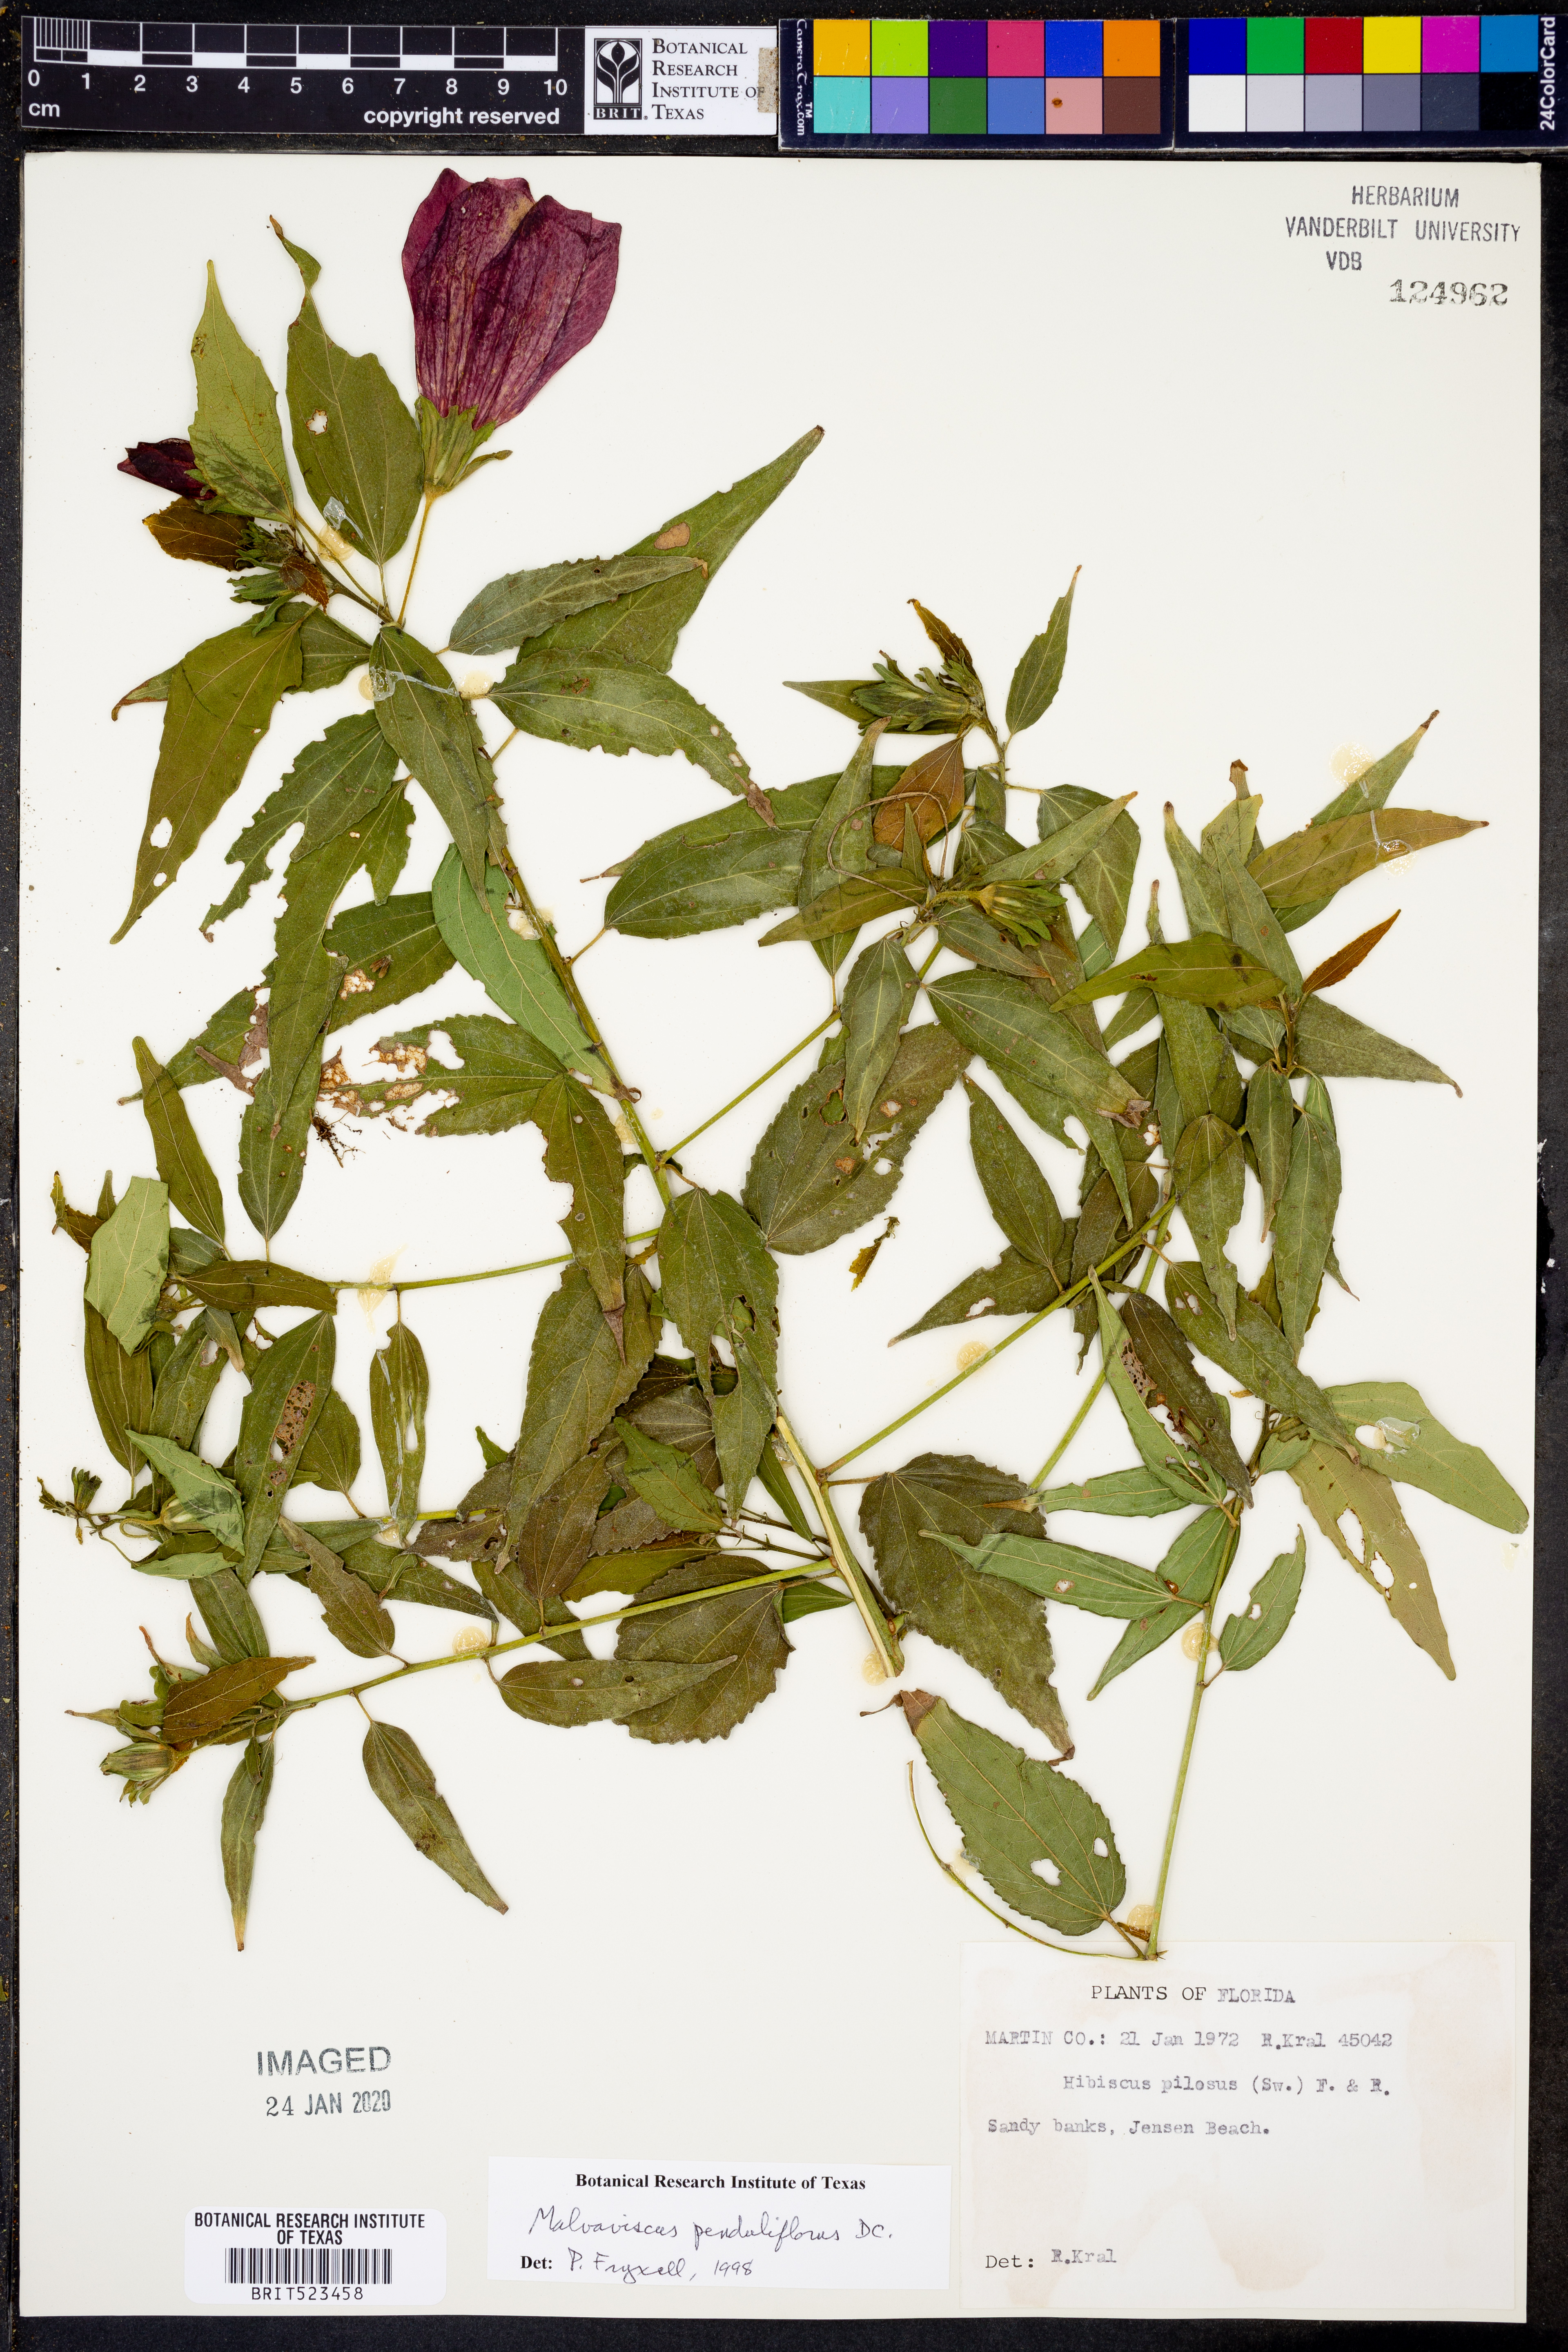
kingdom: Plantae
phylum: Tracheophyta
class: Magnoliopsida
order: Malvales
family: Malvaceae
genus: Malvaviscus
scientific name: Malvaviscus penduliflorus
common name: Mazapan
